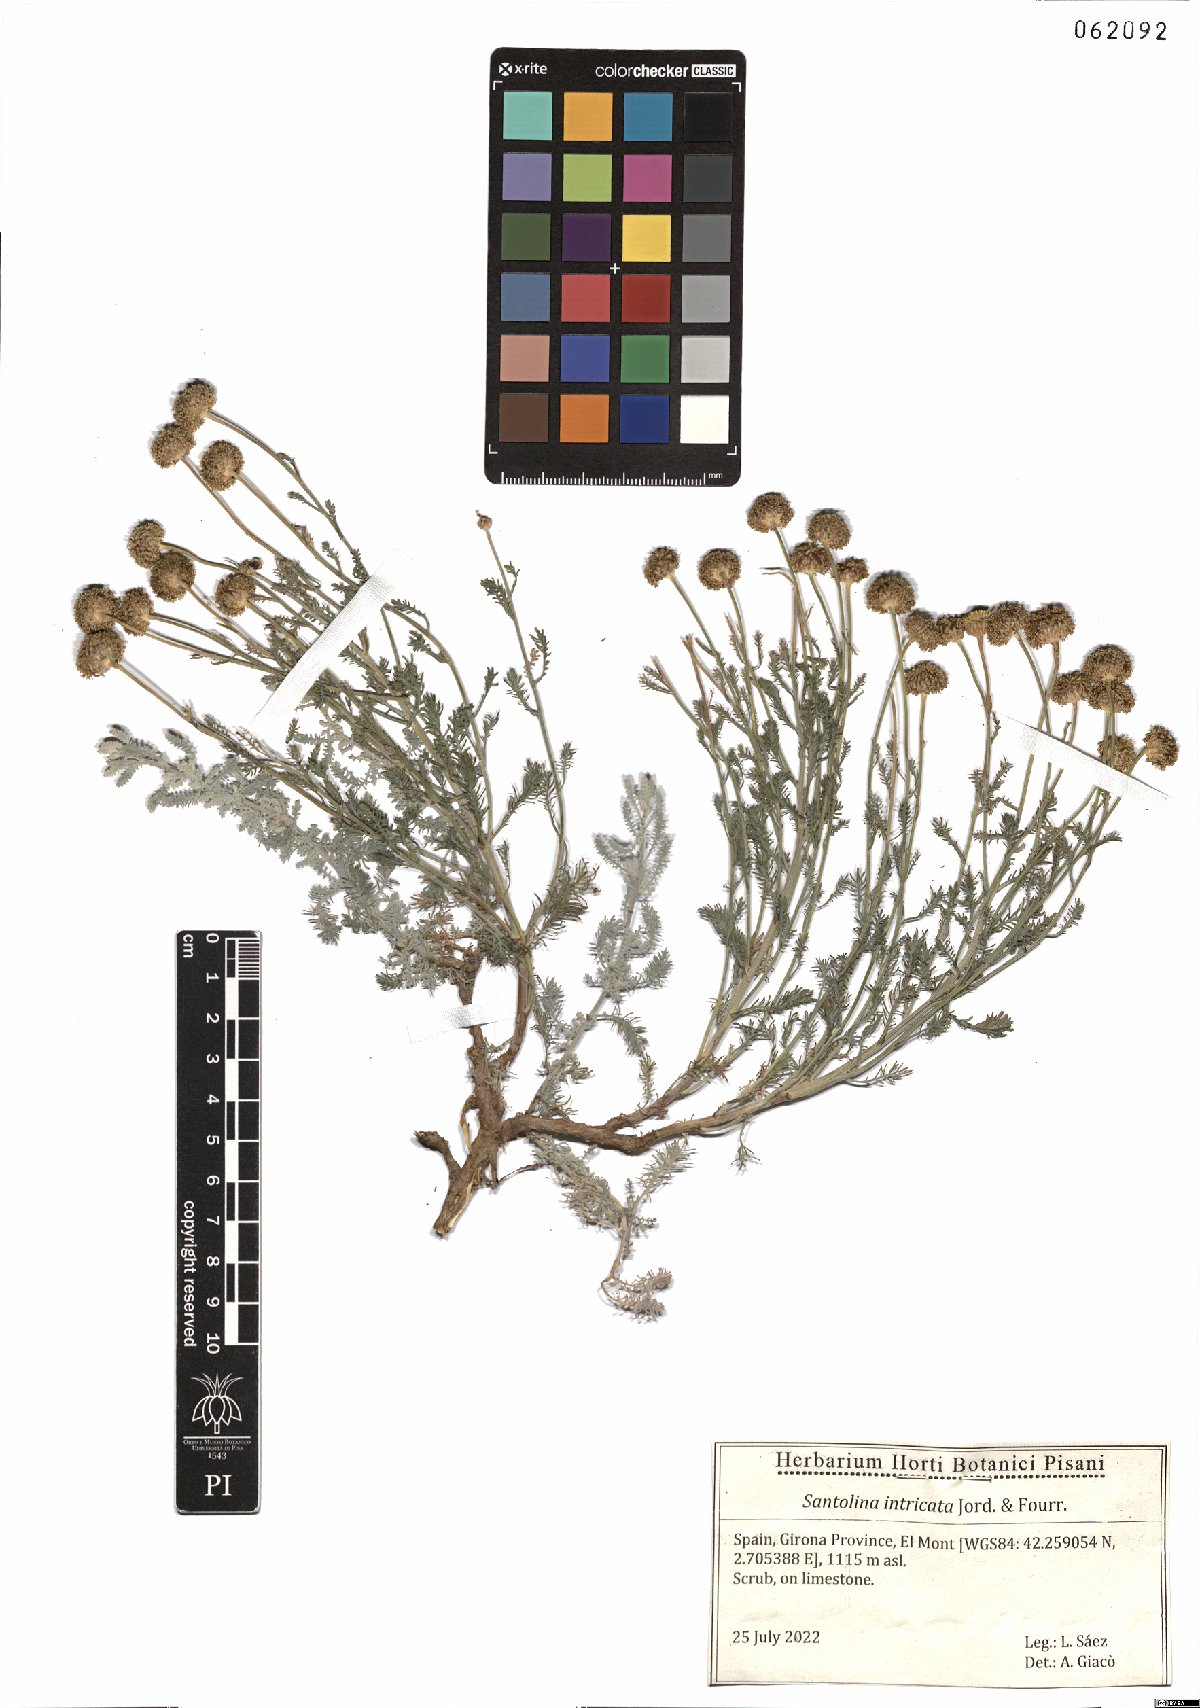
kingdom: Plantae
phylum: Tracheophyta
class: Magnoliopsida
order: Asterales
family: Asteraceae
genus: Santolina
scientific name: Santolina benthamiana
